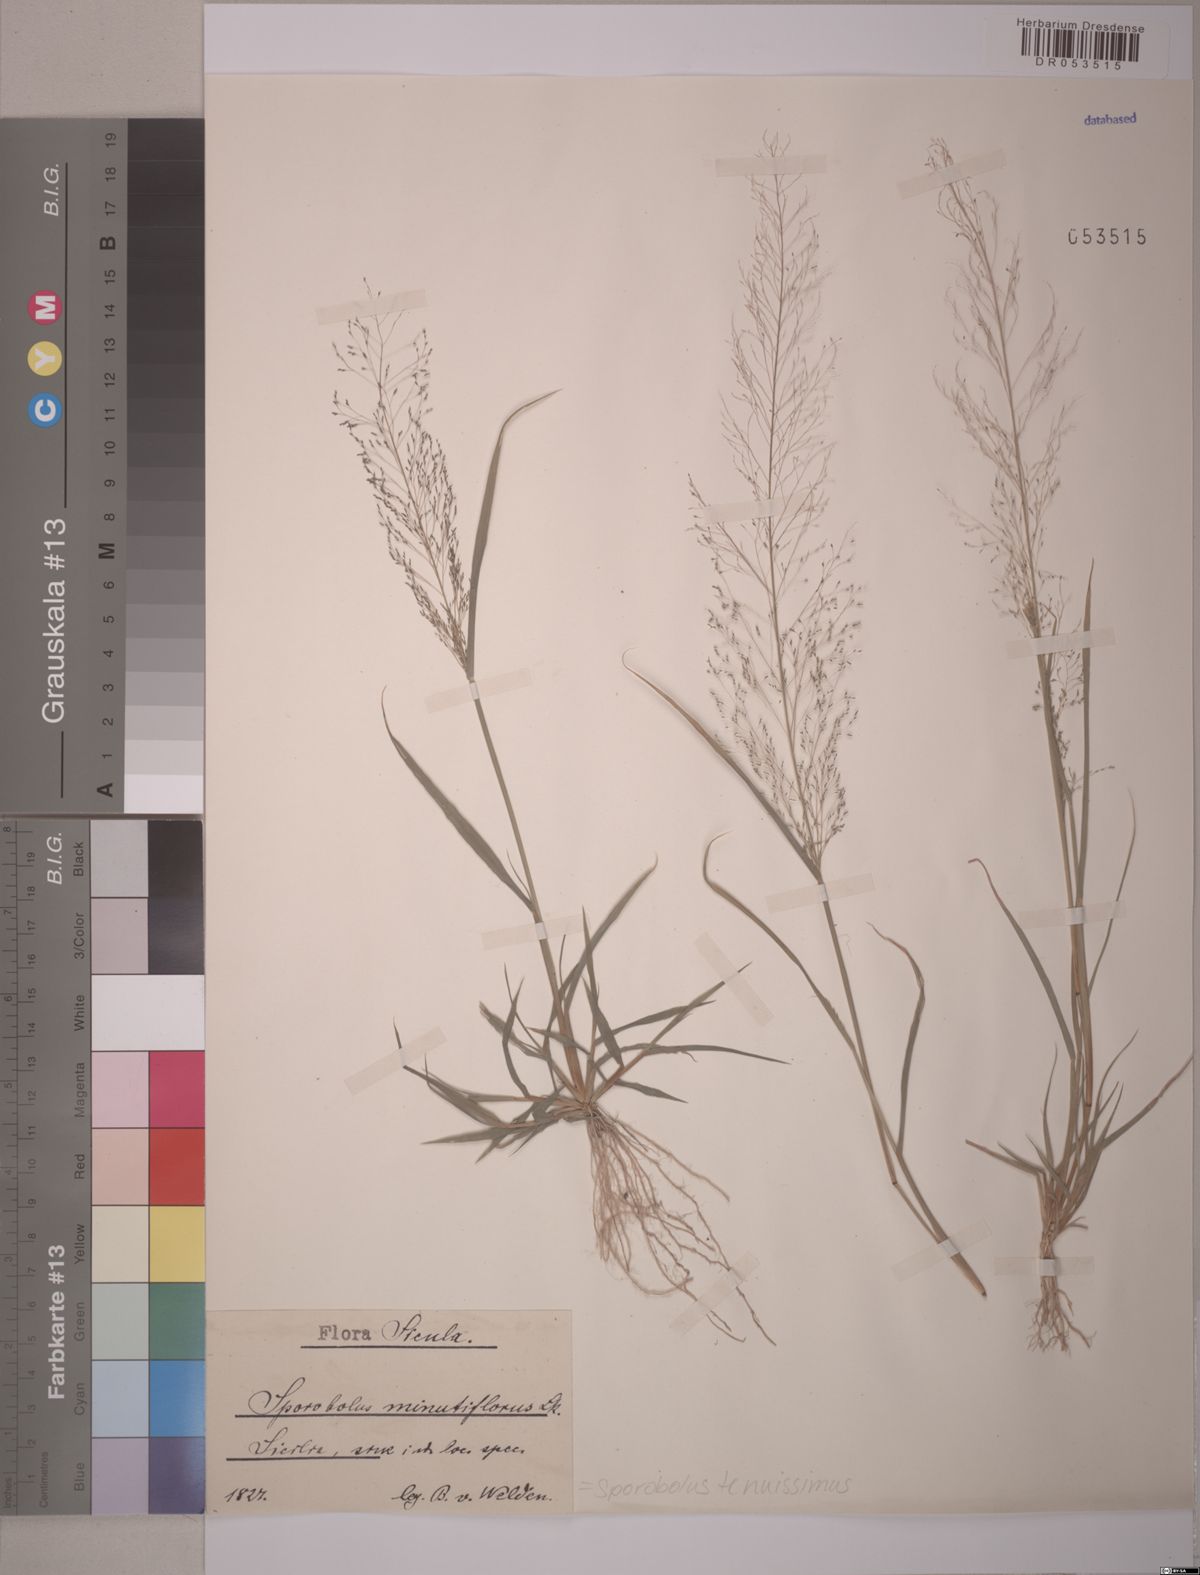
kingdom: Plantae
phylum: Tracheophyta
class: Liliopsida
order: Poales
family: Poaceae
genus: Sporobolus
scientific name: Sporobolus tenuissimus
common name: Tropical dropseed
